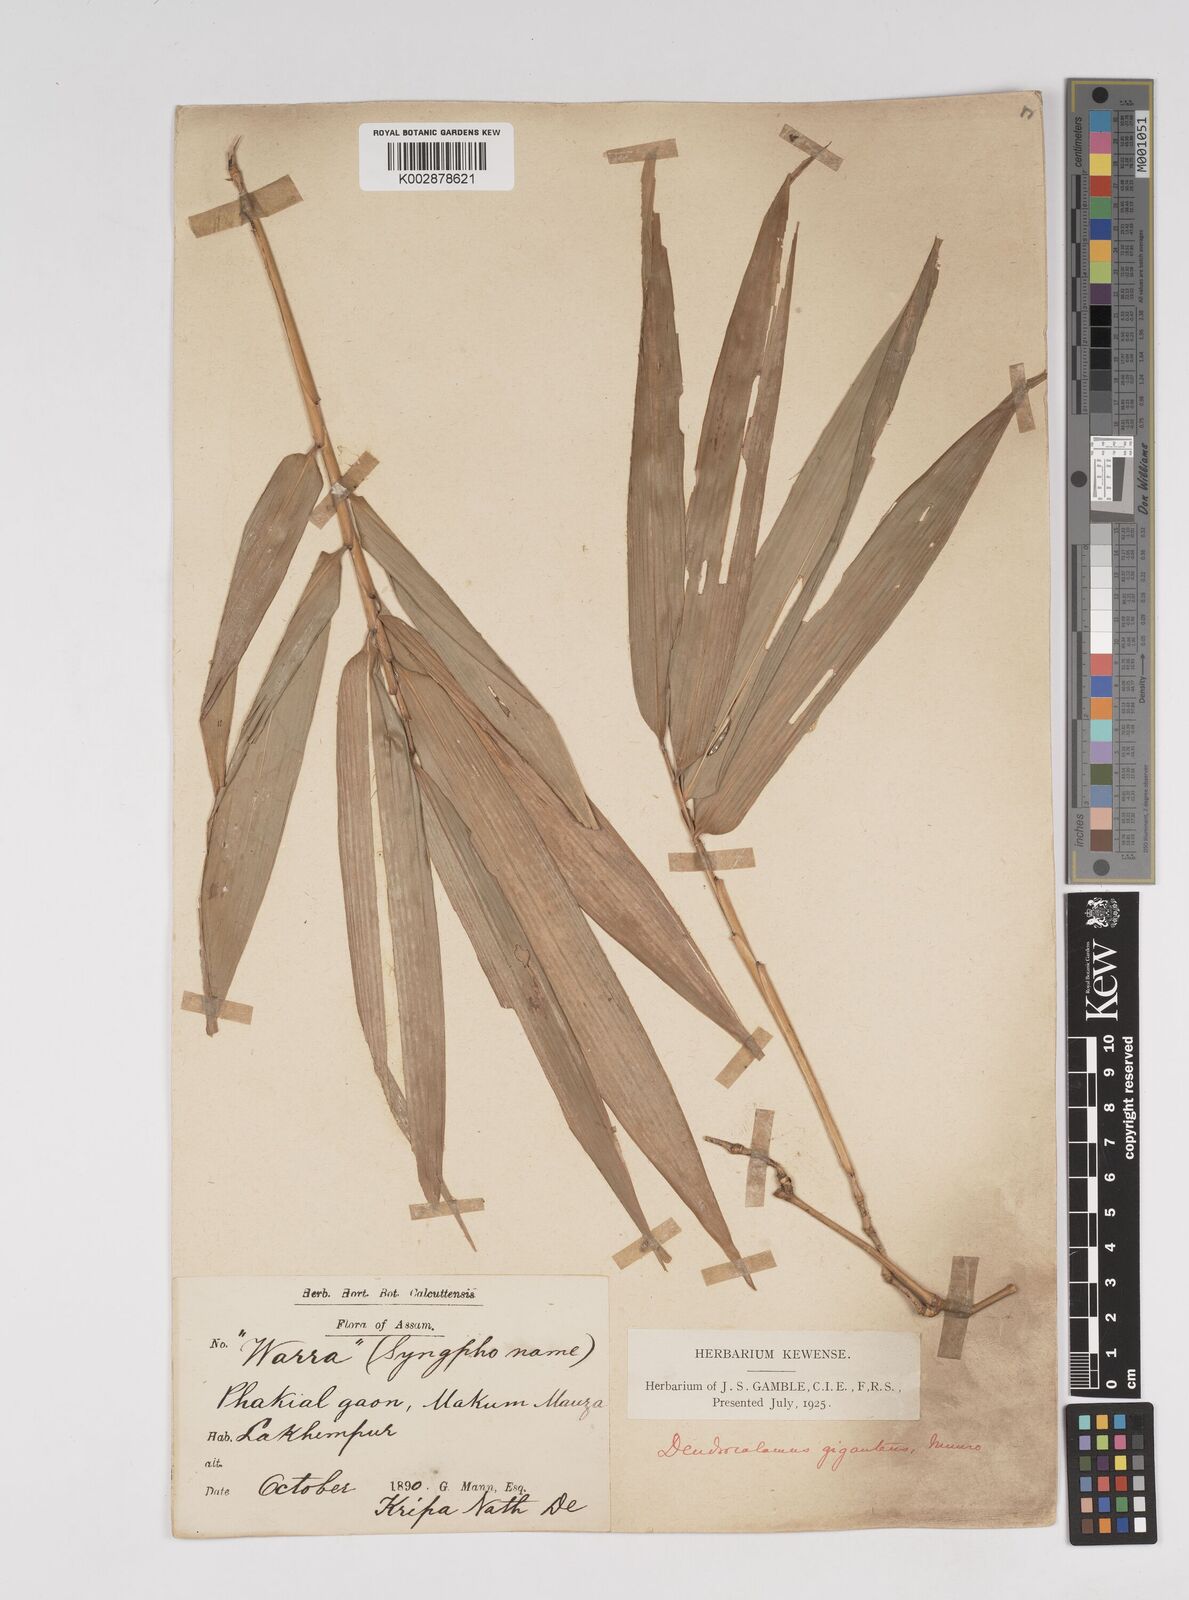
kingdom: Plantae
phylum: Tracheophyta
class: Liliopsida
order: Poales
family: Poaceae
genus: Dendrocalamus
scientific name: Dendrocalamus giganteus
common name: Giant bamboo
